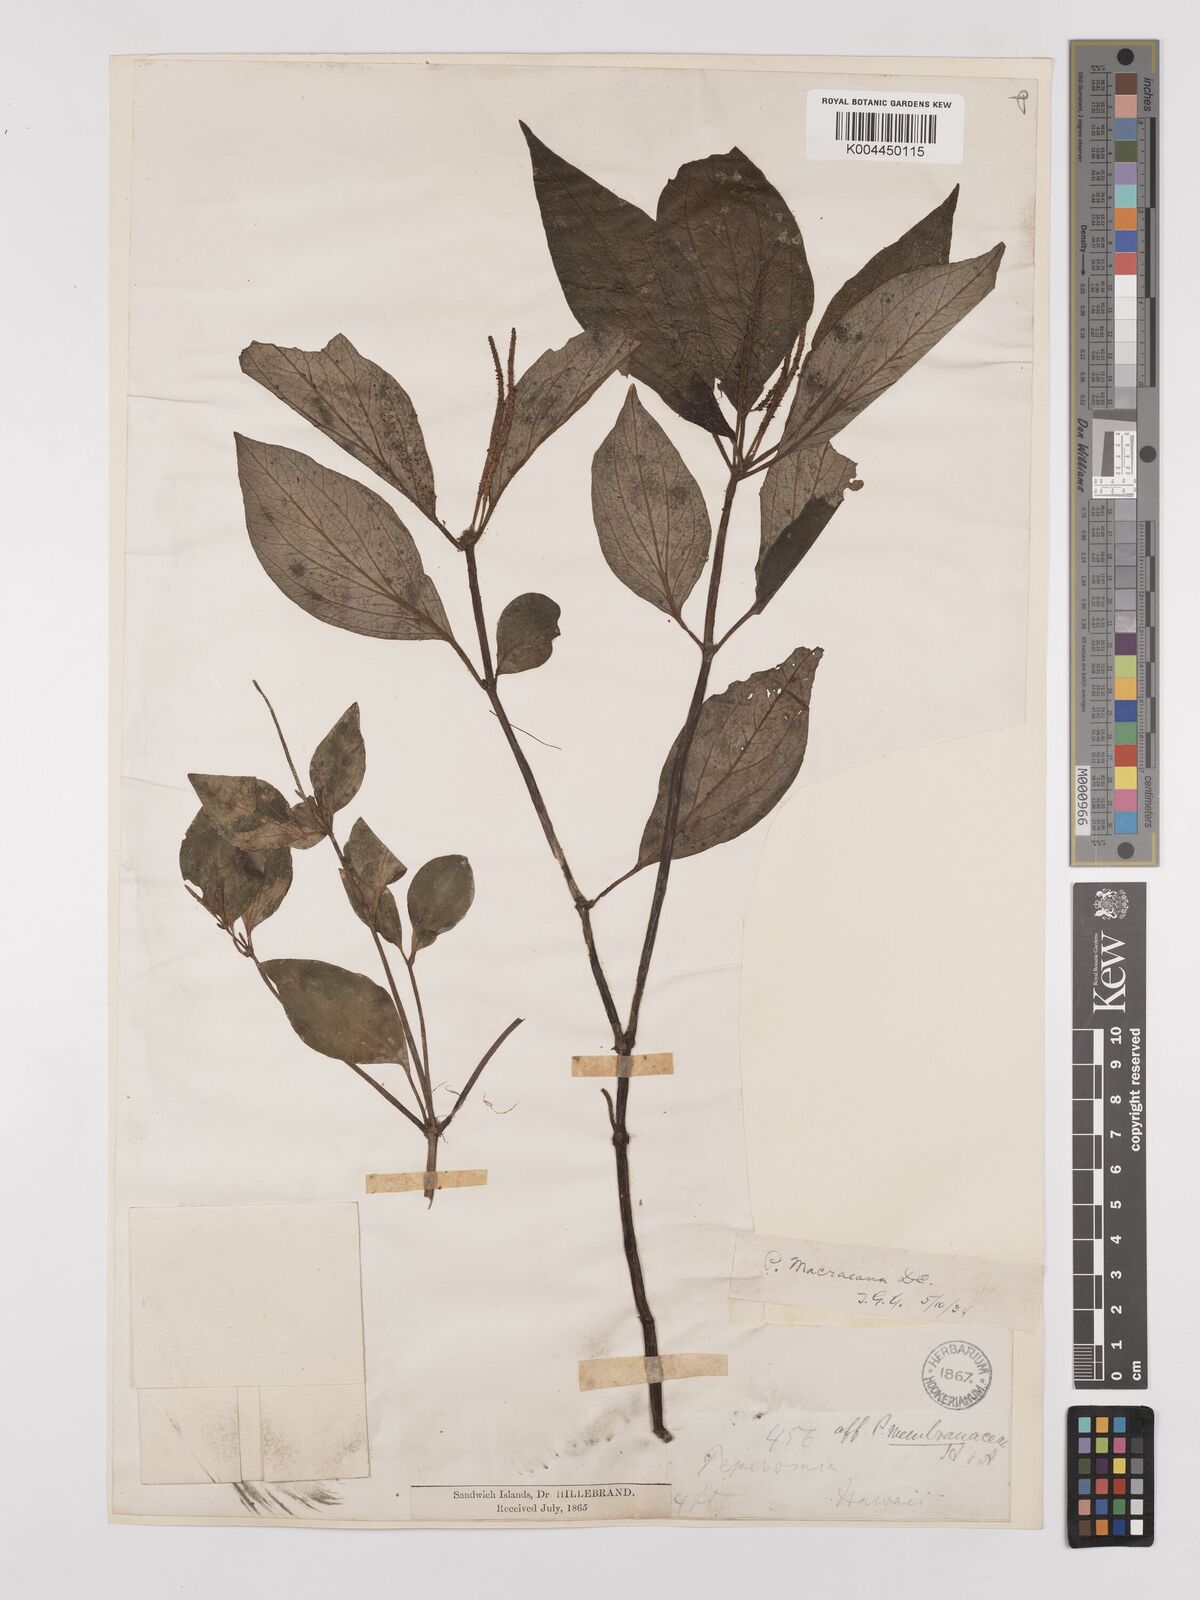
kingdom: Plantae
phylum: Tracheophyta
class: Magnoliopsida
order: Piperales
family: Piperaceae
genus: Peperomia
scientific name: Peperomia macraeana
